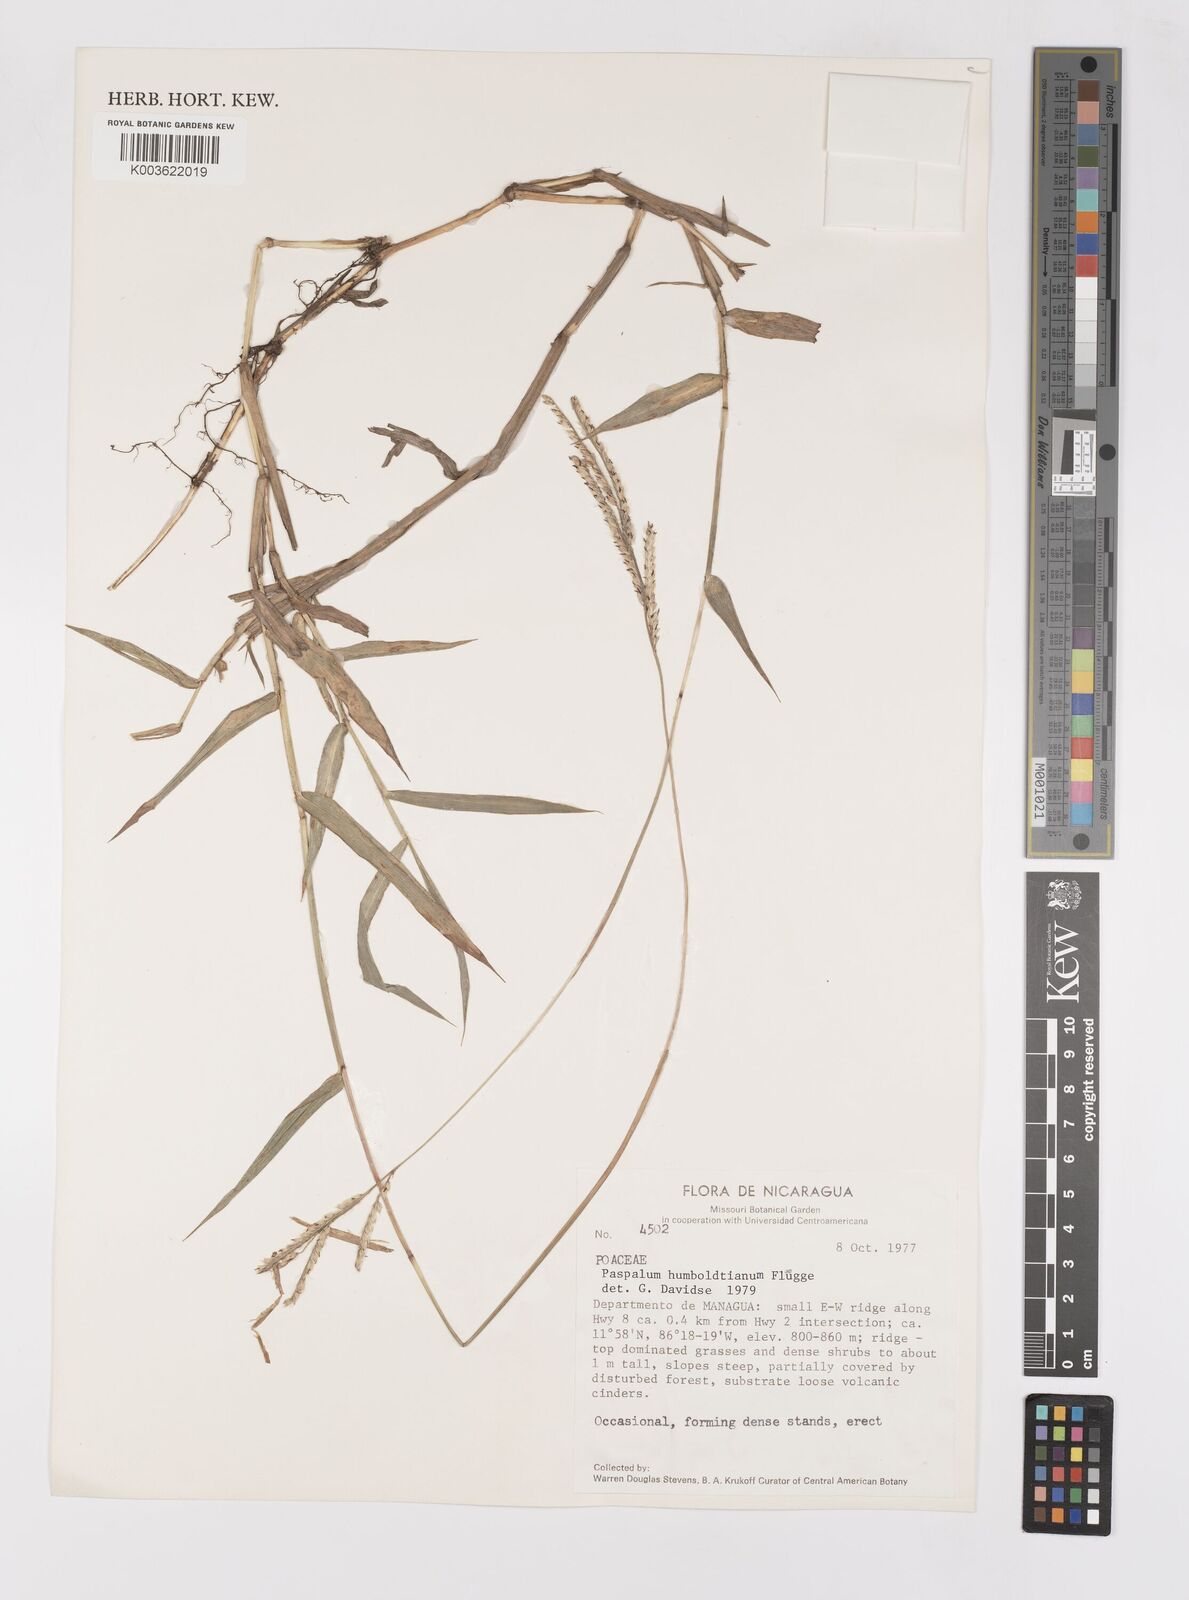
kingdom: Plantae
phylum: Tracheophyta
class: Liliopsida
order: Poales
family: Poaceae
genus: Paspalum
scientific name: Paspalum humboldtianum
